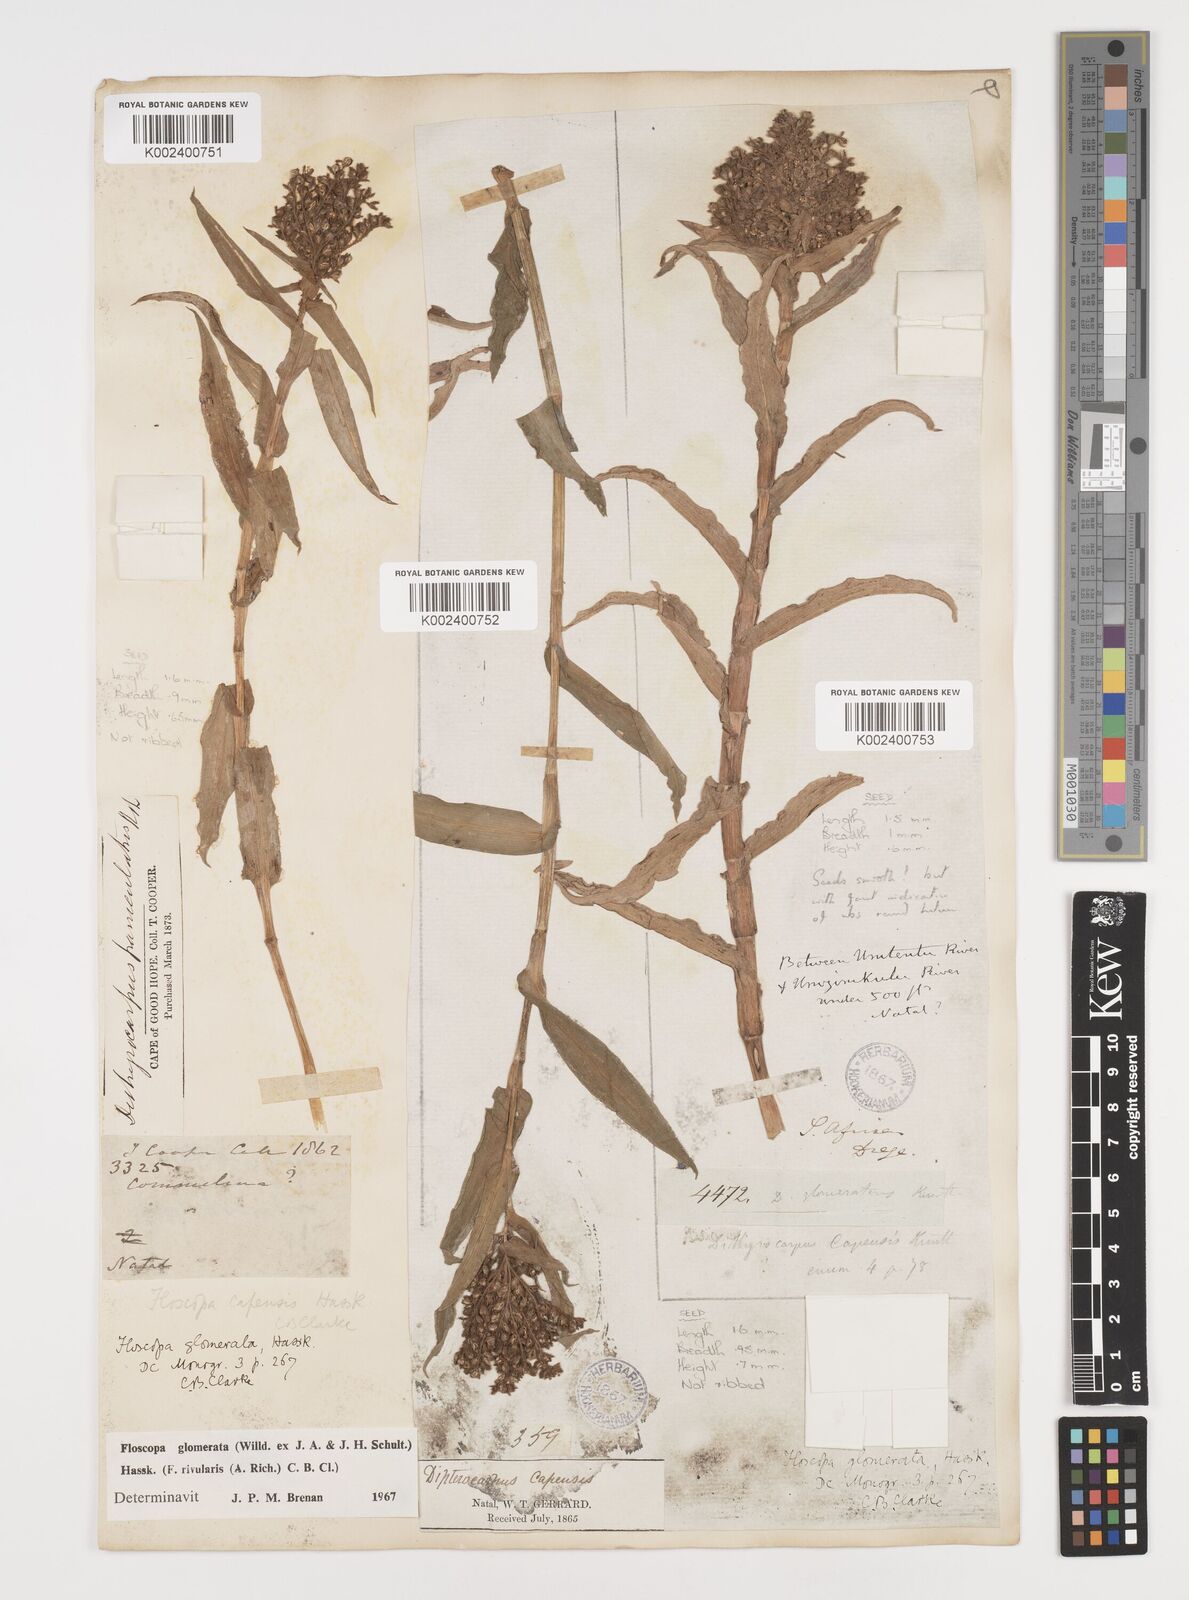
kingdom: Plantae
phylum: Tracheophyta
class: Liliopsida
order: Commelinales
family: Commelinaceae
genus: Floscopa
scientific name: Floscopa glomerata
